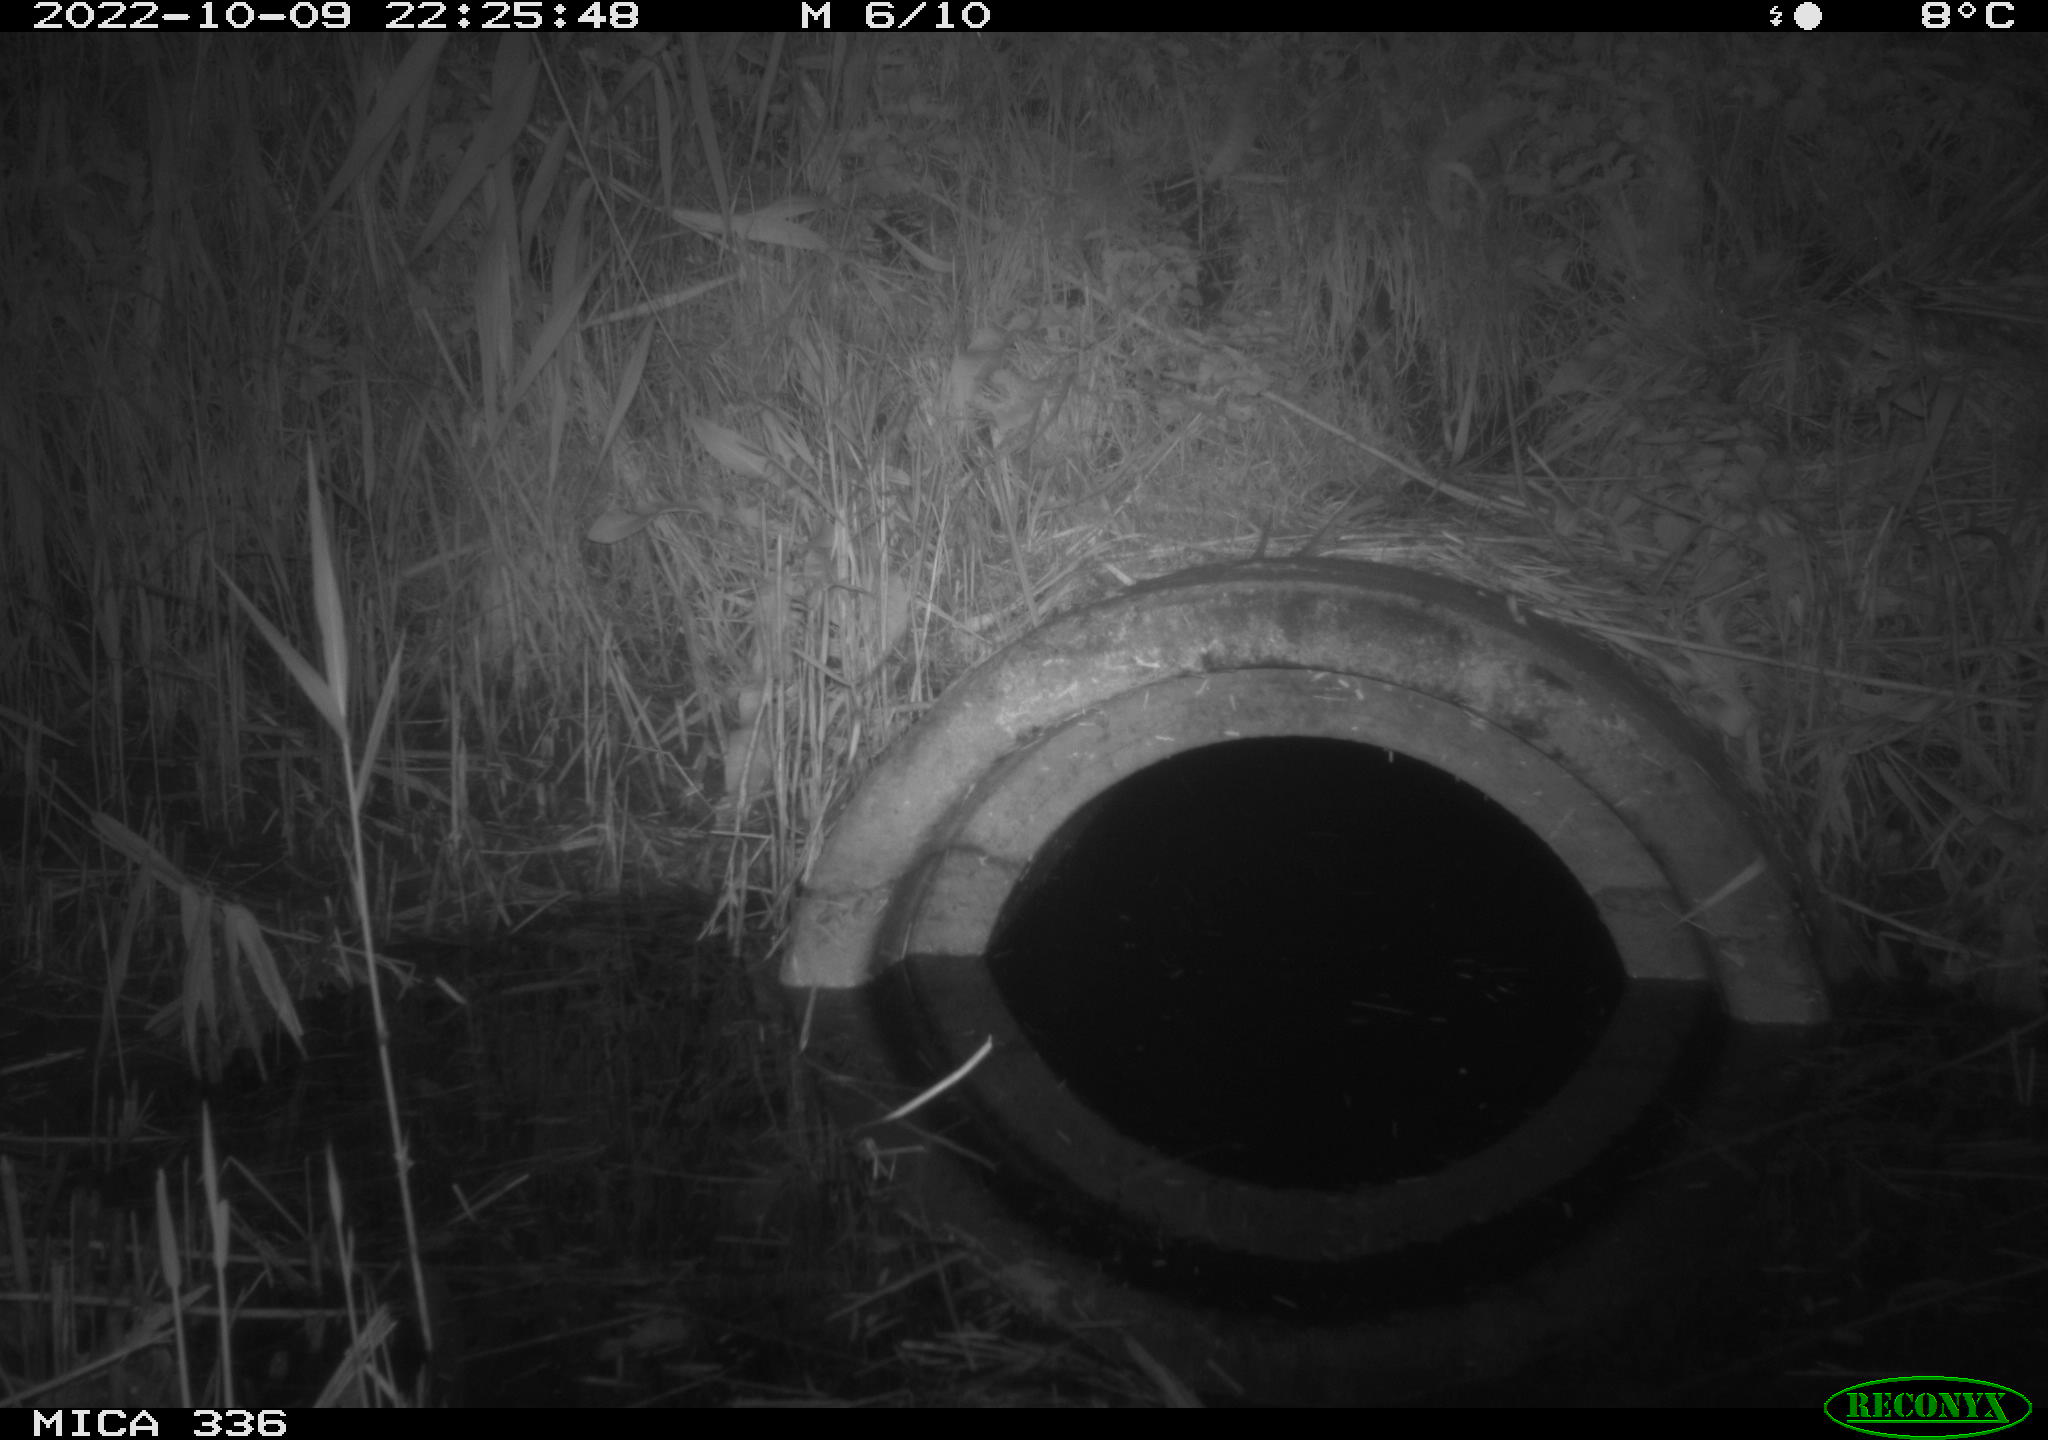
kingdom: Animalia
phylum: Chordata
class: Mammalia
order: Rodentia
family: Muridae
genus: Rattus
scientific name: Rattus norvegicus
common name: Brown rat
